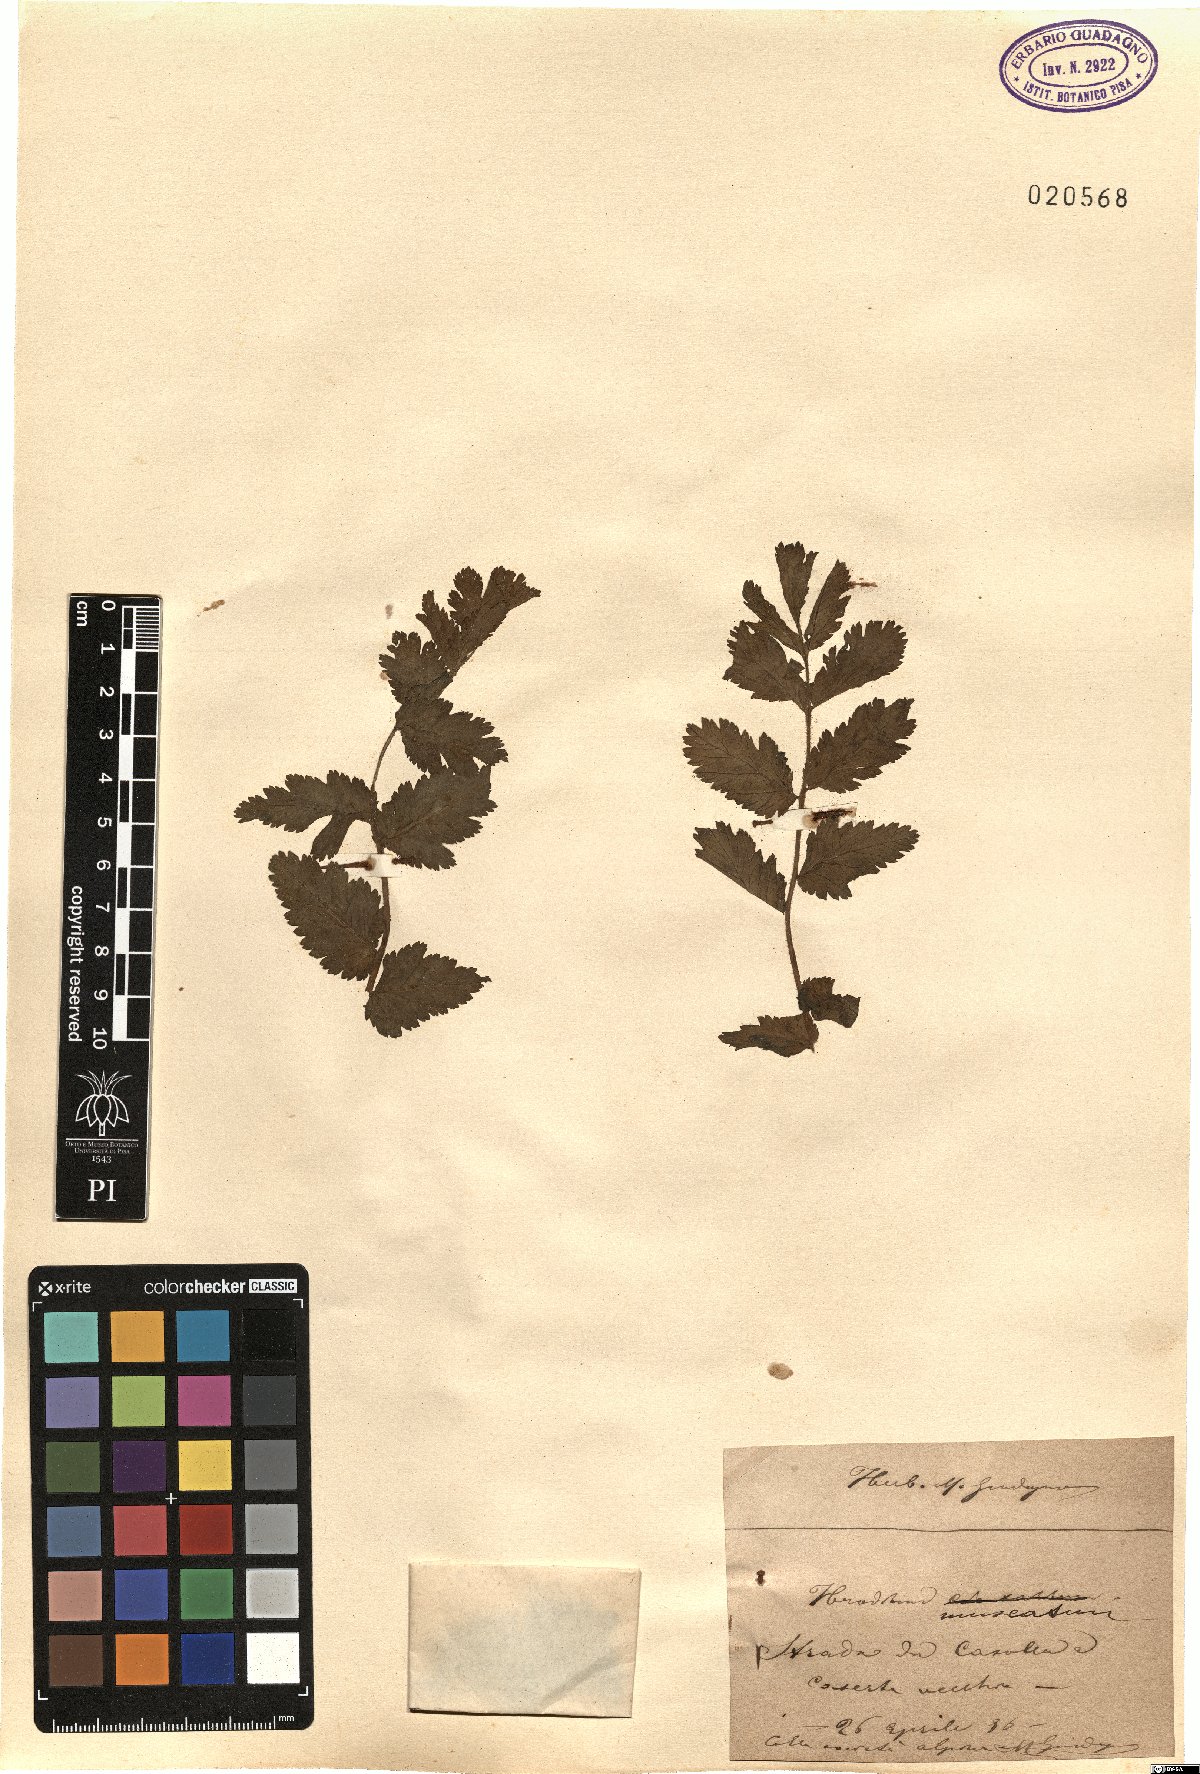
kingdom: Plantae
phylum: Tracheophyta
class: Magnoliopsida
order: Geraniales
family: Geraniaceae
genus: Erodium
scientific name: Erodium moschatum
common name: Musk stork's-bill
